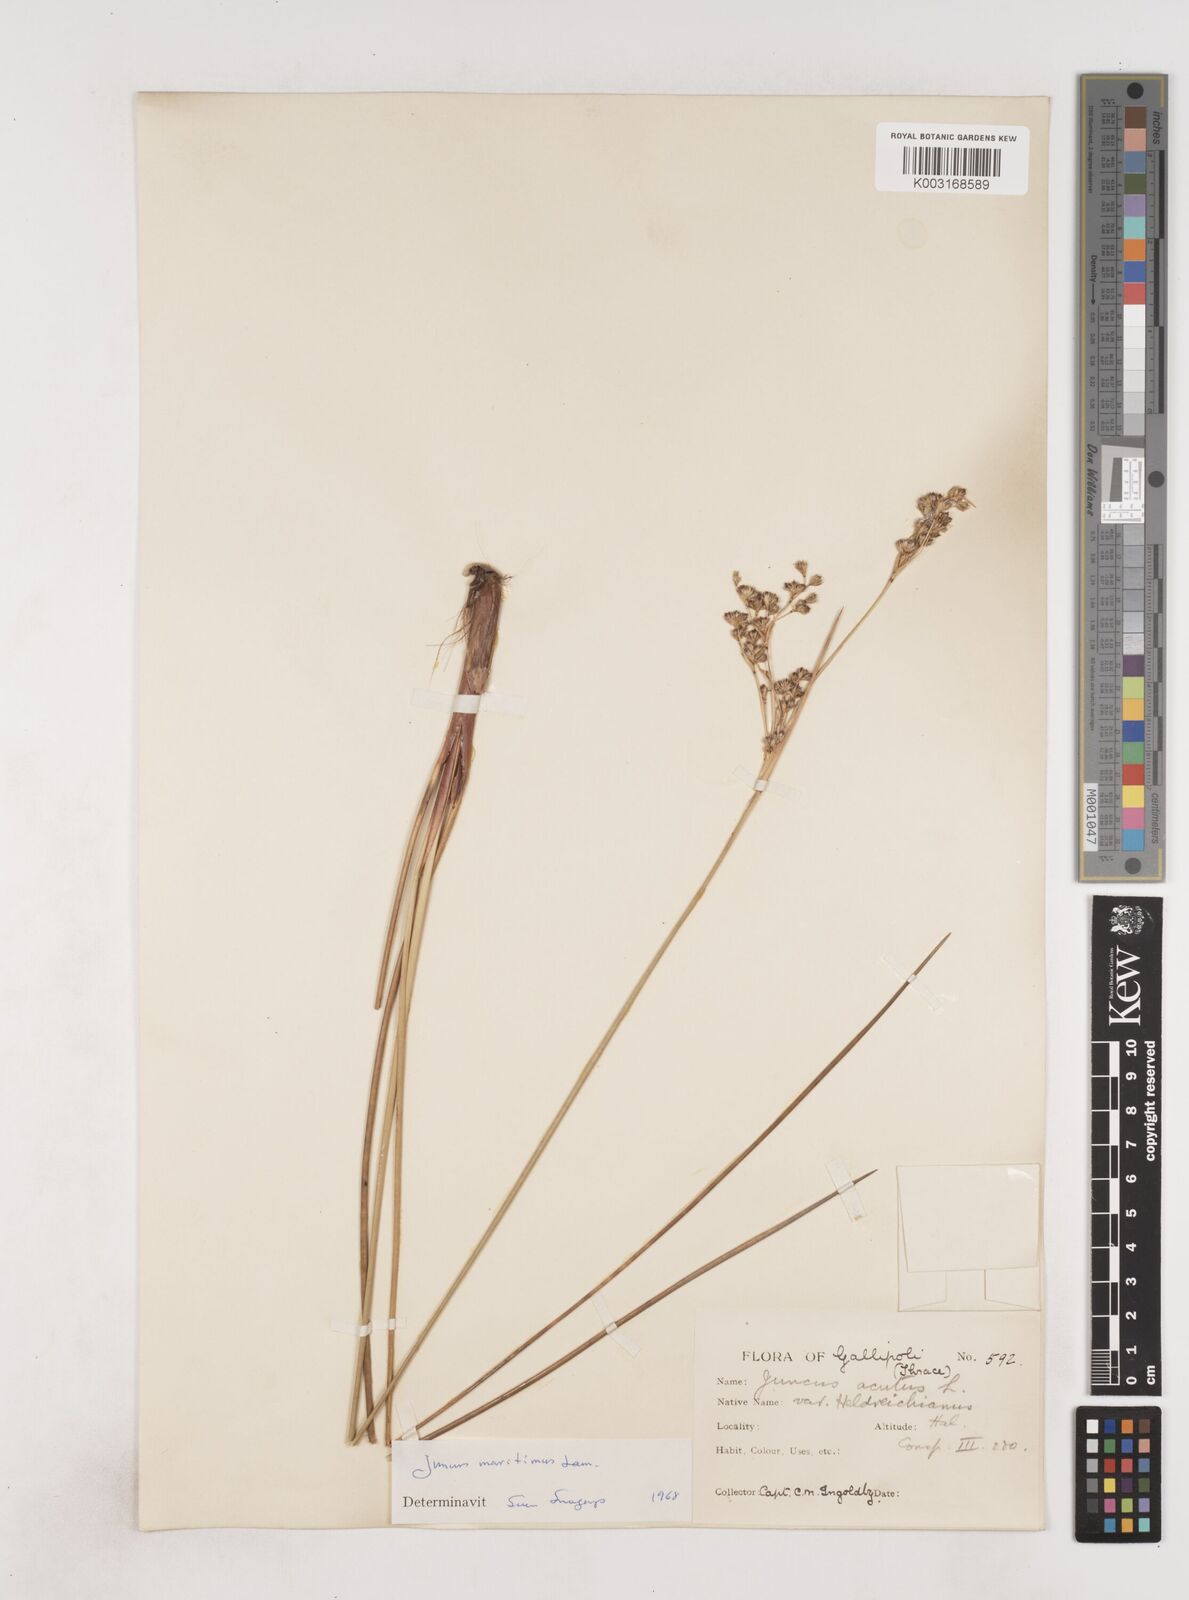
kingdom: Plantae
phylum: Tracheophyta
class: Liliopsida
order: Poales
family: Juncaceae
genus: Juncus
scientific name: Juncus maritimus
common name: Sea rush
